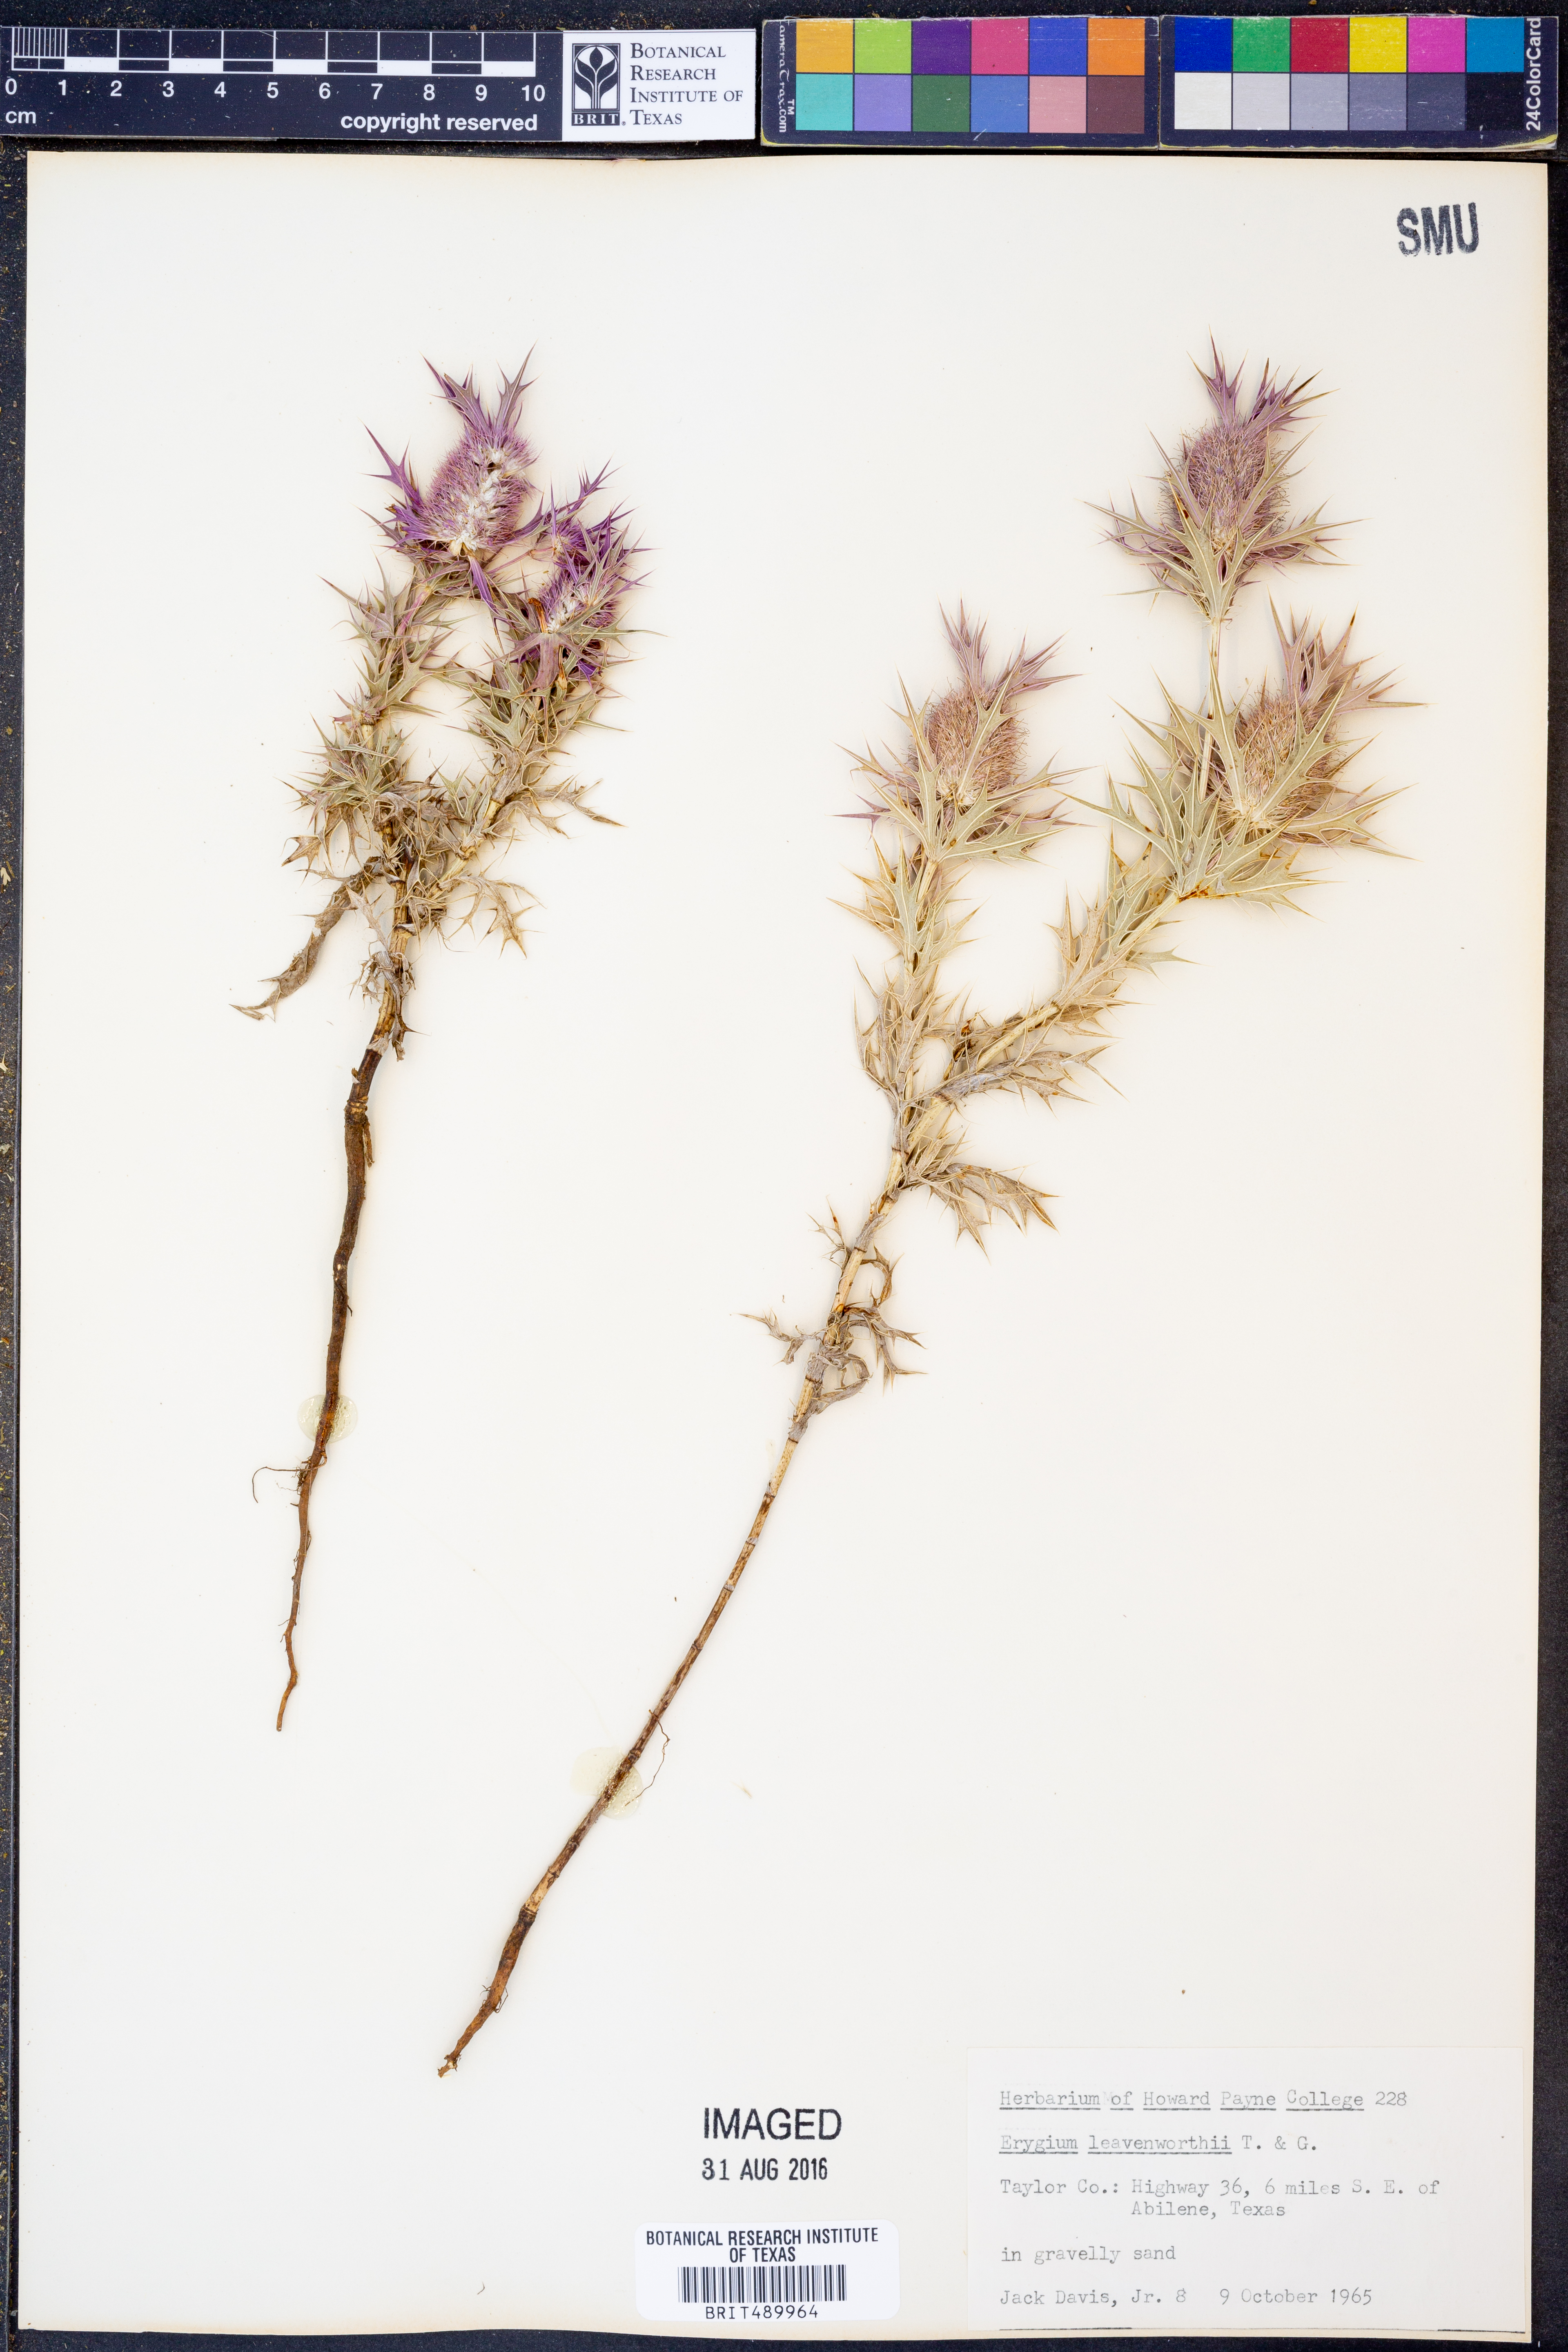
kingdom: Plantae
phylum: Tracheophyta
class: Magnoliopsida
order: Apiales
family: Apiaceae
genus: Eryngium
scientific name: Eryngium leavenworthii
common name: Leavenworth's eryngo
